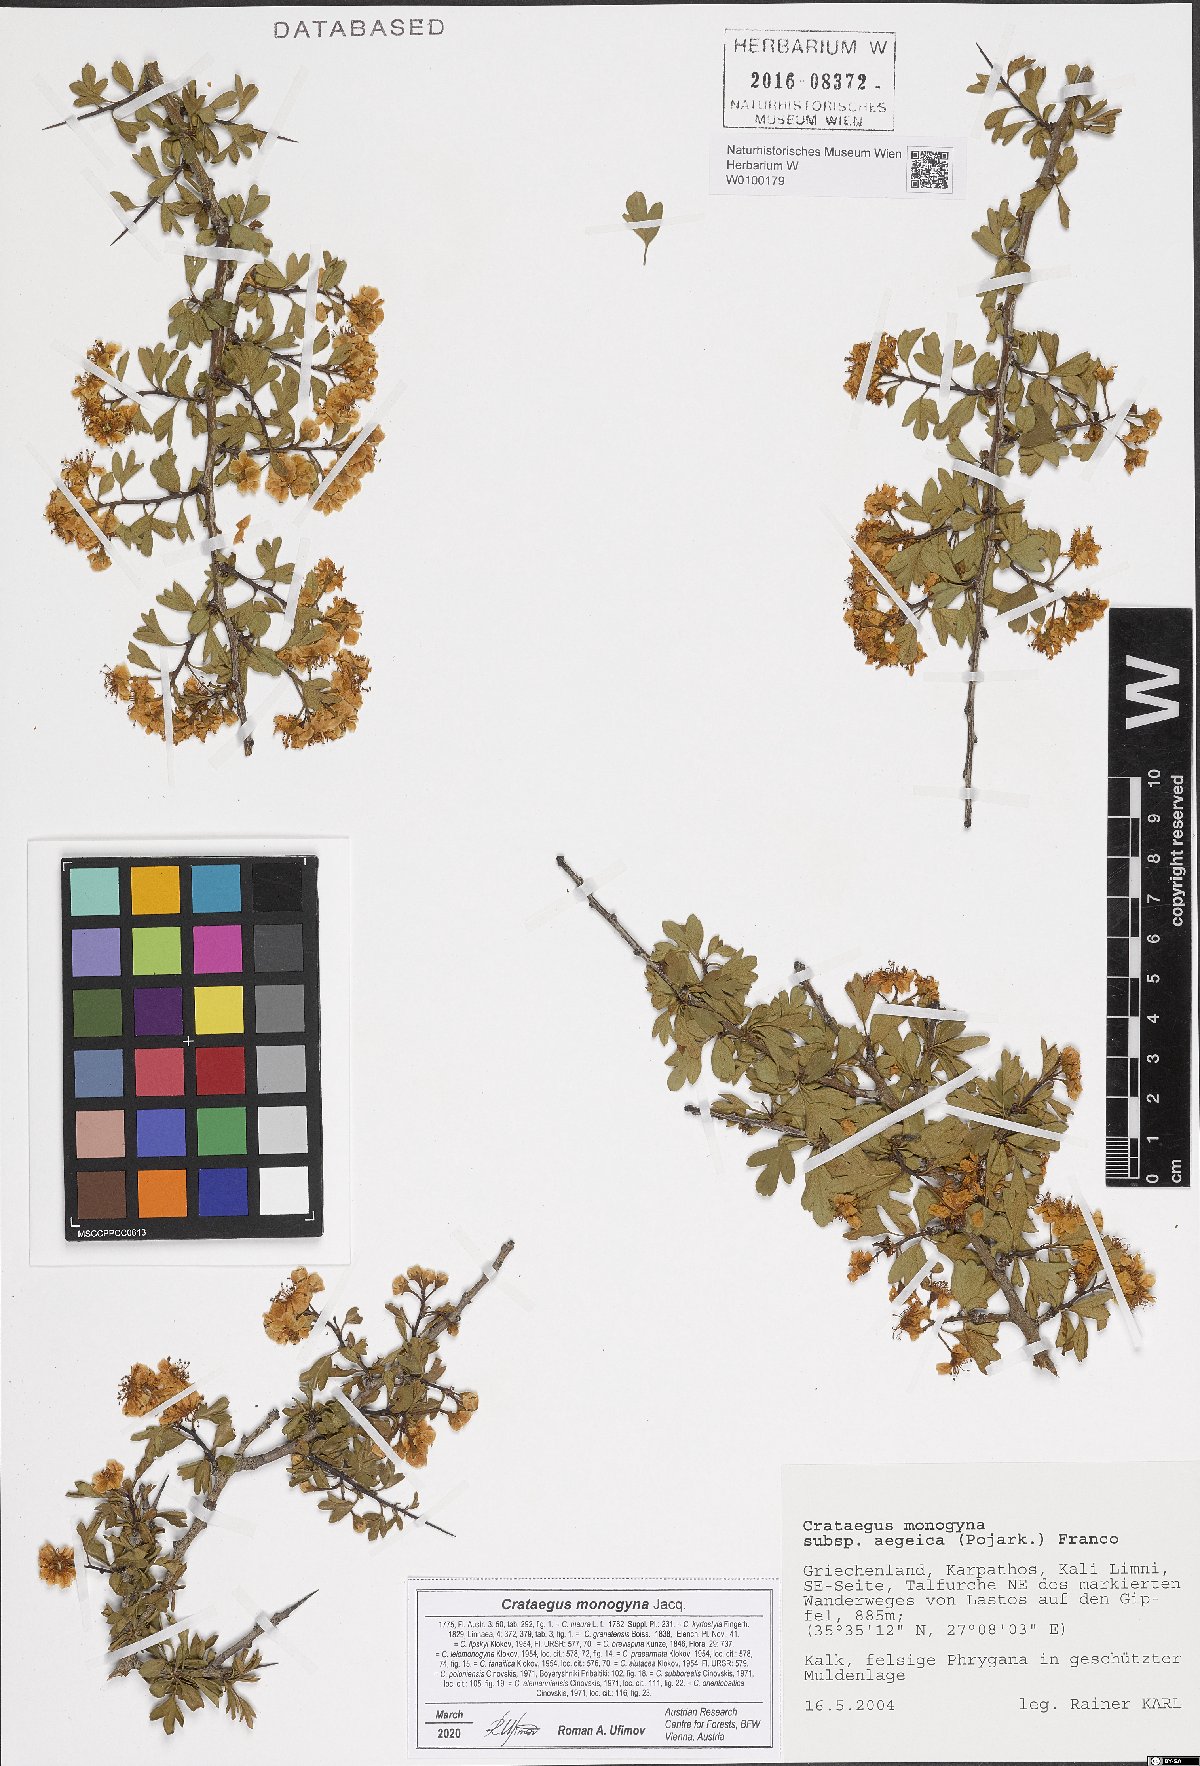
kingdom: Plantae
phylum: Tracheophyta
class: Magnoliopsida
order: Rosales
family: Rosaceae
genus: Crataegus
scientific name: Crataegus monogyna
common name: Hawthorn
